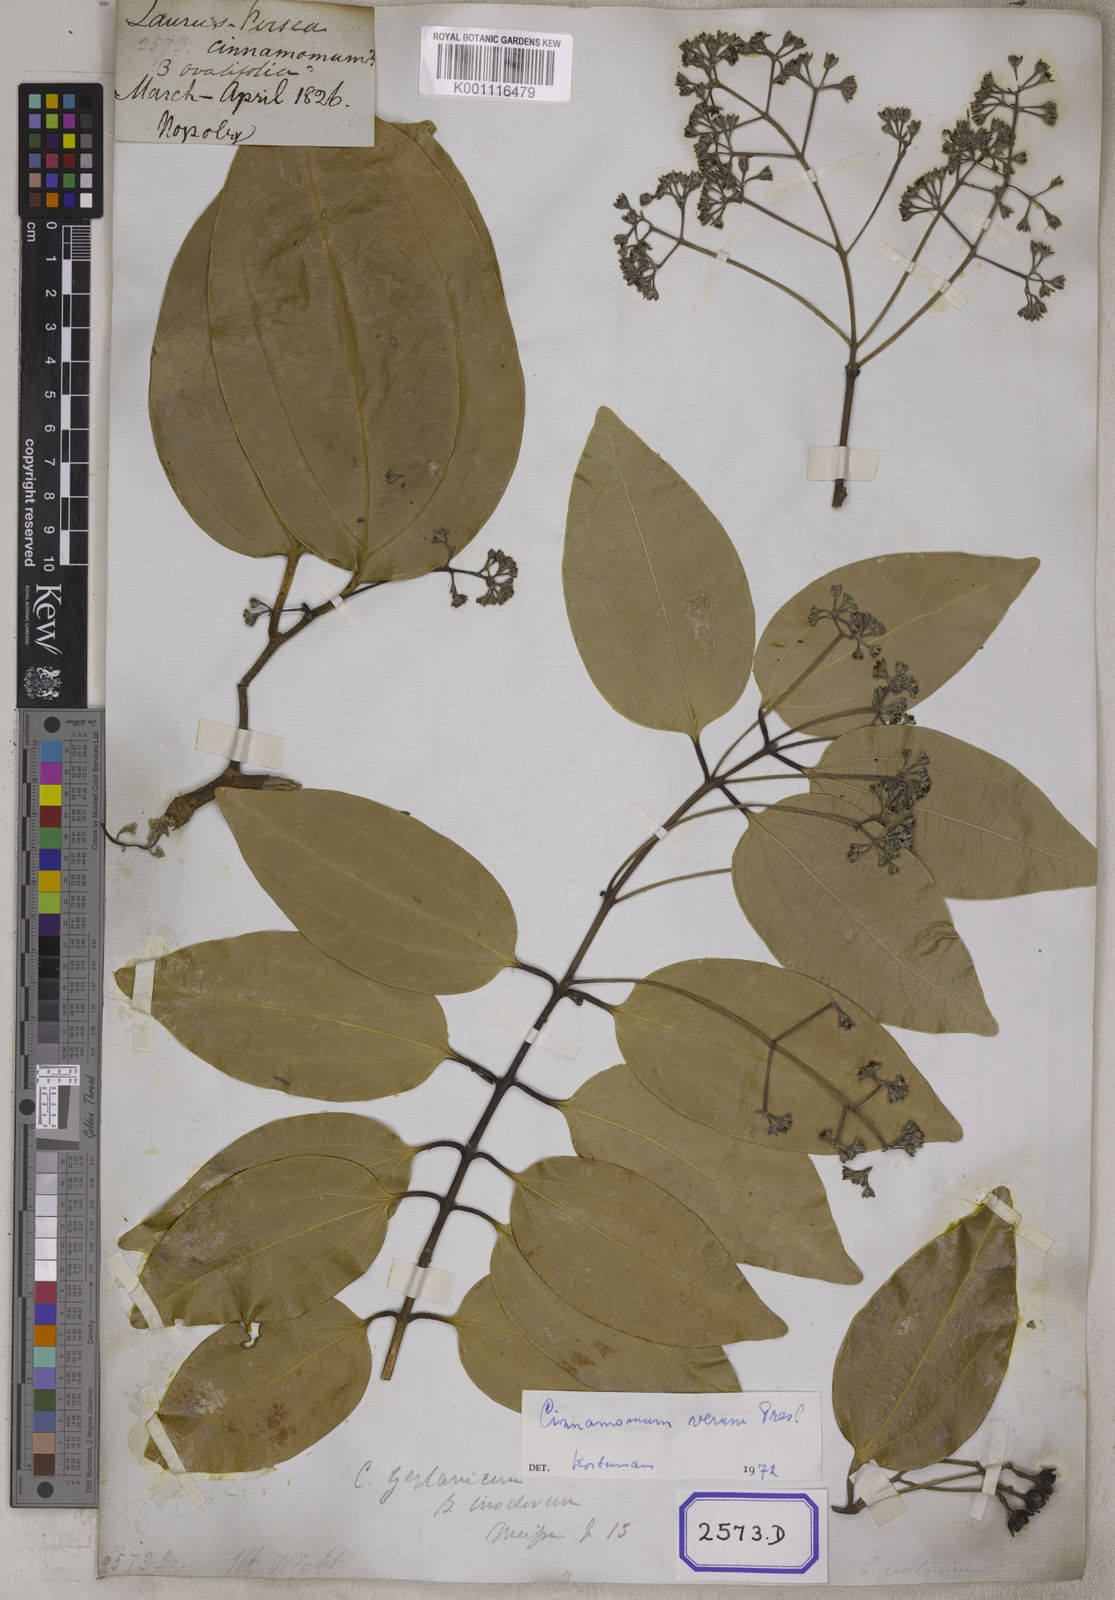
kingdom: Plantae
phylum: Tracheophyta
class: Magnoliopsida
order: Laurales
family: Lauraceae
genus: Cinnamomum
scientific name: Cinnamomum verum
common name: Cinnamon
